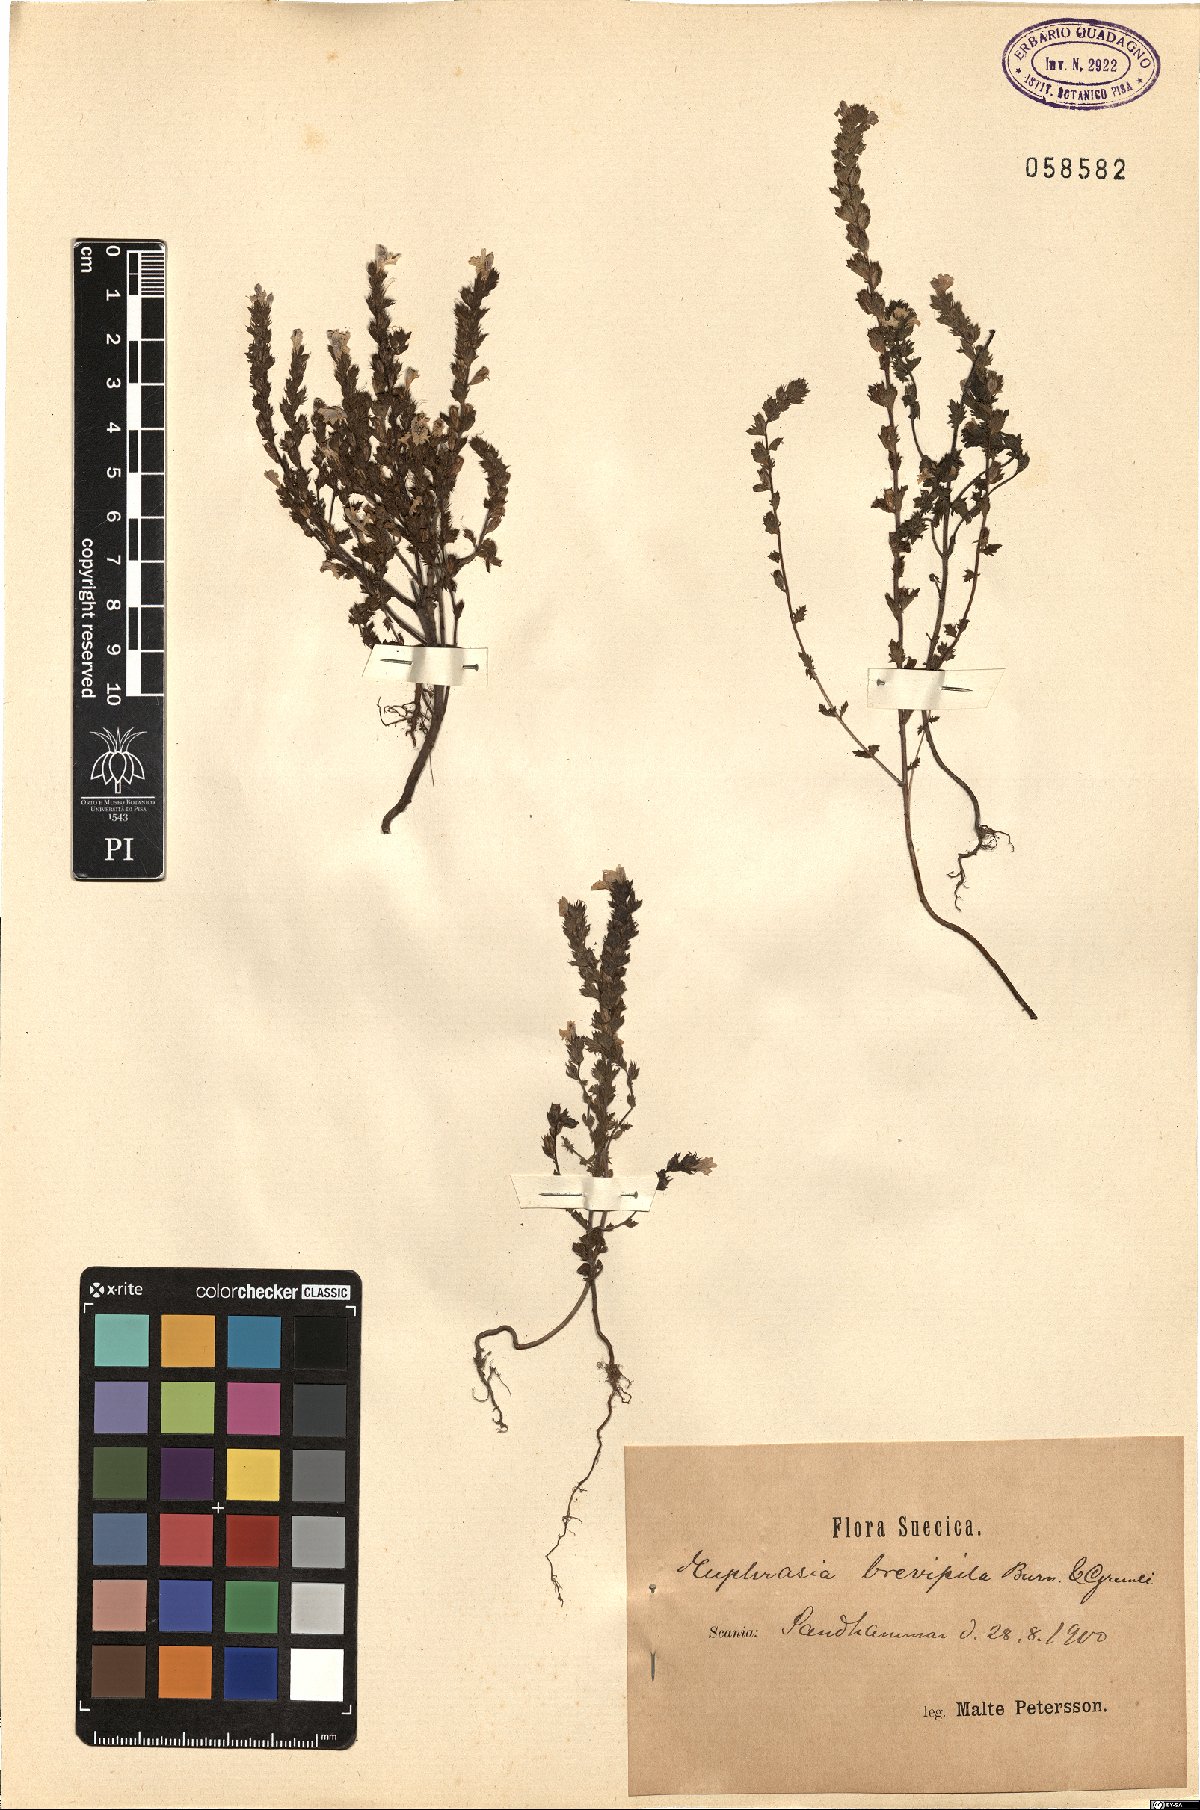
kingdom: Plantae
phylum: Tracheophyta
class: Magnoliopsida
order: Lamiales
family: Orobanchaceae
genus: Euphrasia
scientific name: Euphrasia vernalis
